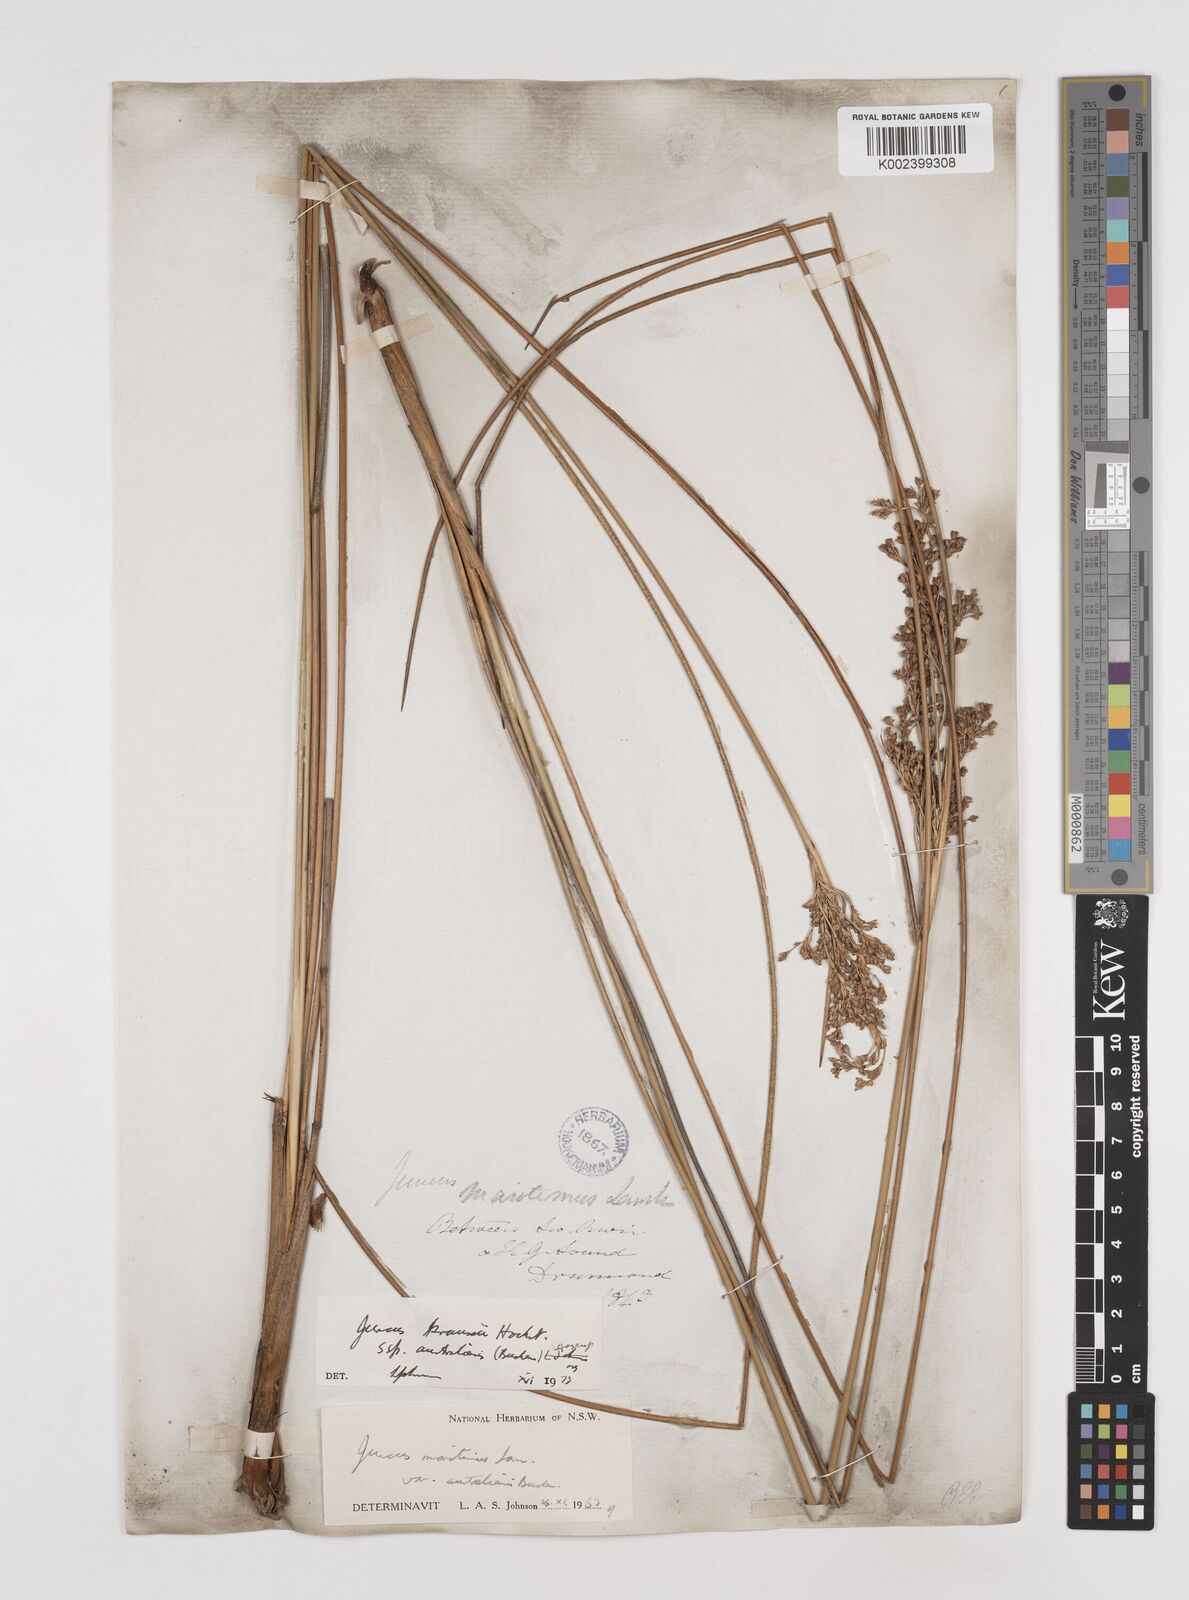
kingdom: Plantae
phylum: Tracheophyta
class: Liliopsida
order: Poales
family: Juncaceae
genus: Juncus
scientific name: Juncus kraussii
